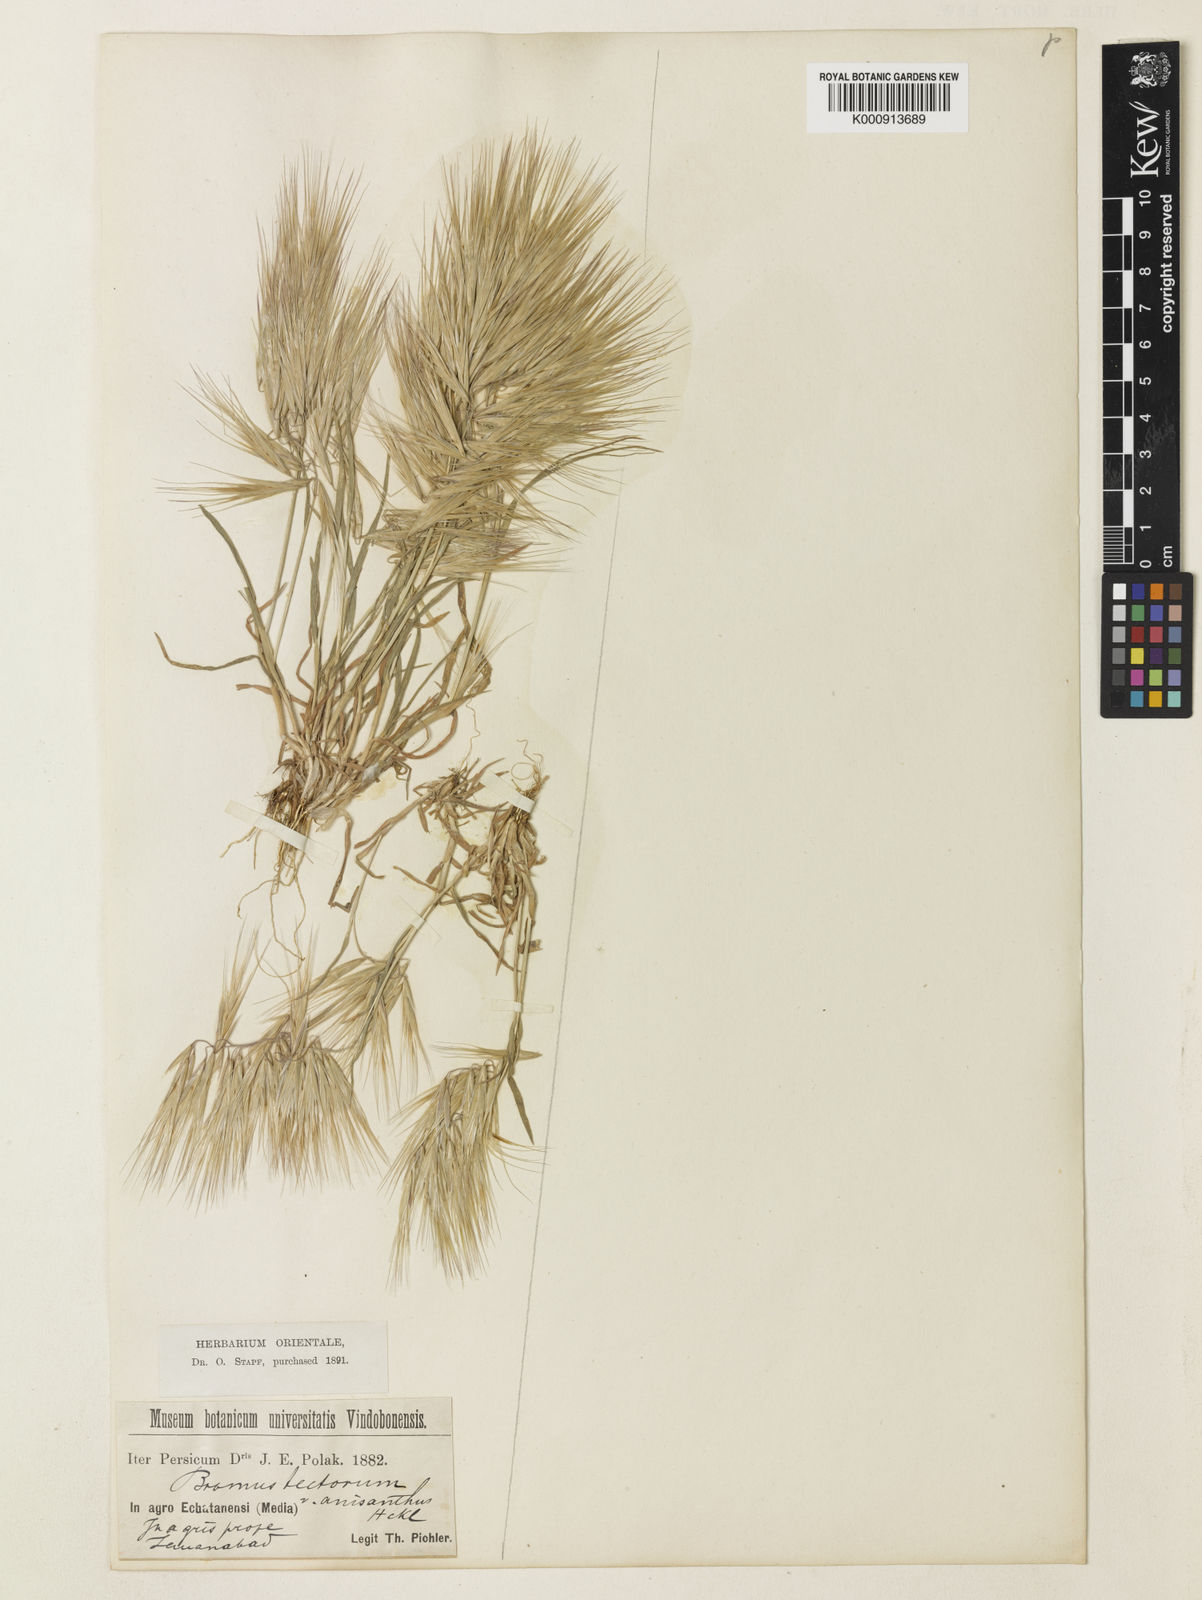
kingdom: Plantae
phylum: Tracheophyta
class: Liliopsida
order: Poales
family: Poaceae
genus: Bromus
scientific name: Bromus tectorum
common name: Cheatgrass
